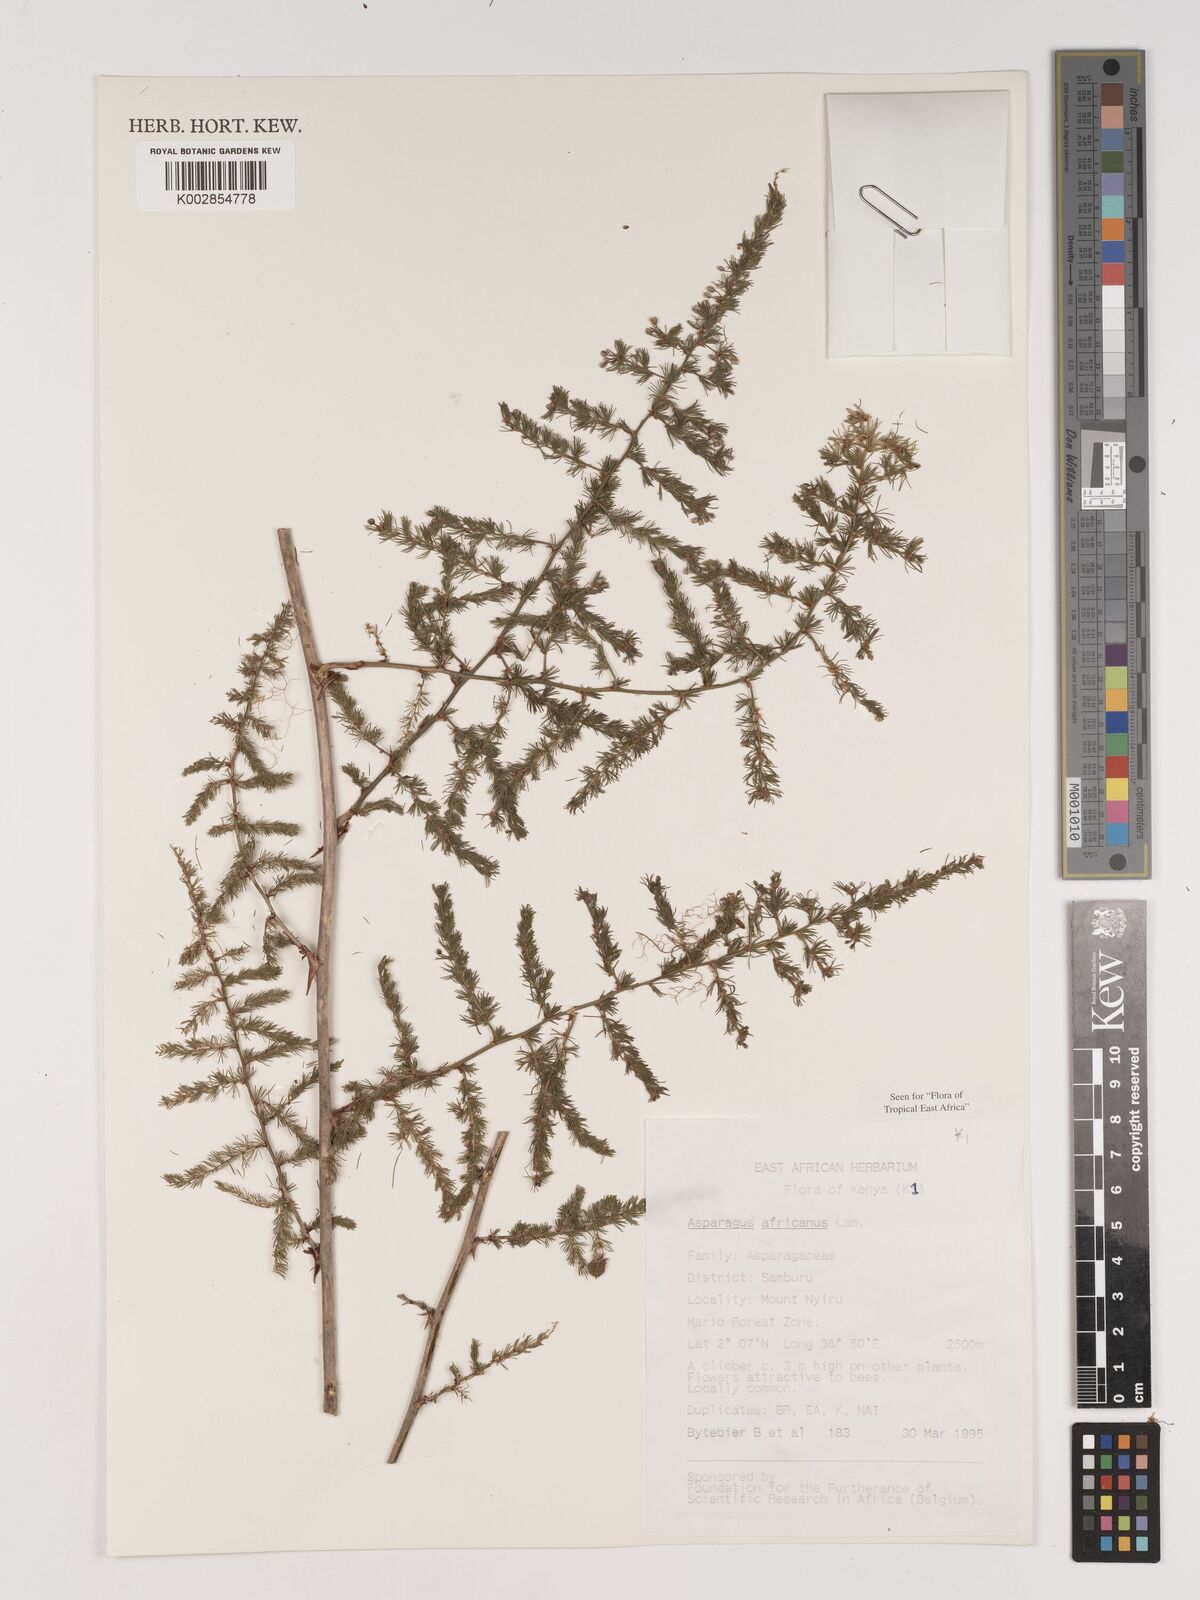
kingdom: Plantae
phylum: Tracheophyta
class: Liliopsida
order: Asparagales
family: Asparagaceae
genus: Asparagus
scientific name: Asparagus africanus
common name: Asparagus-fern
